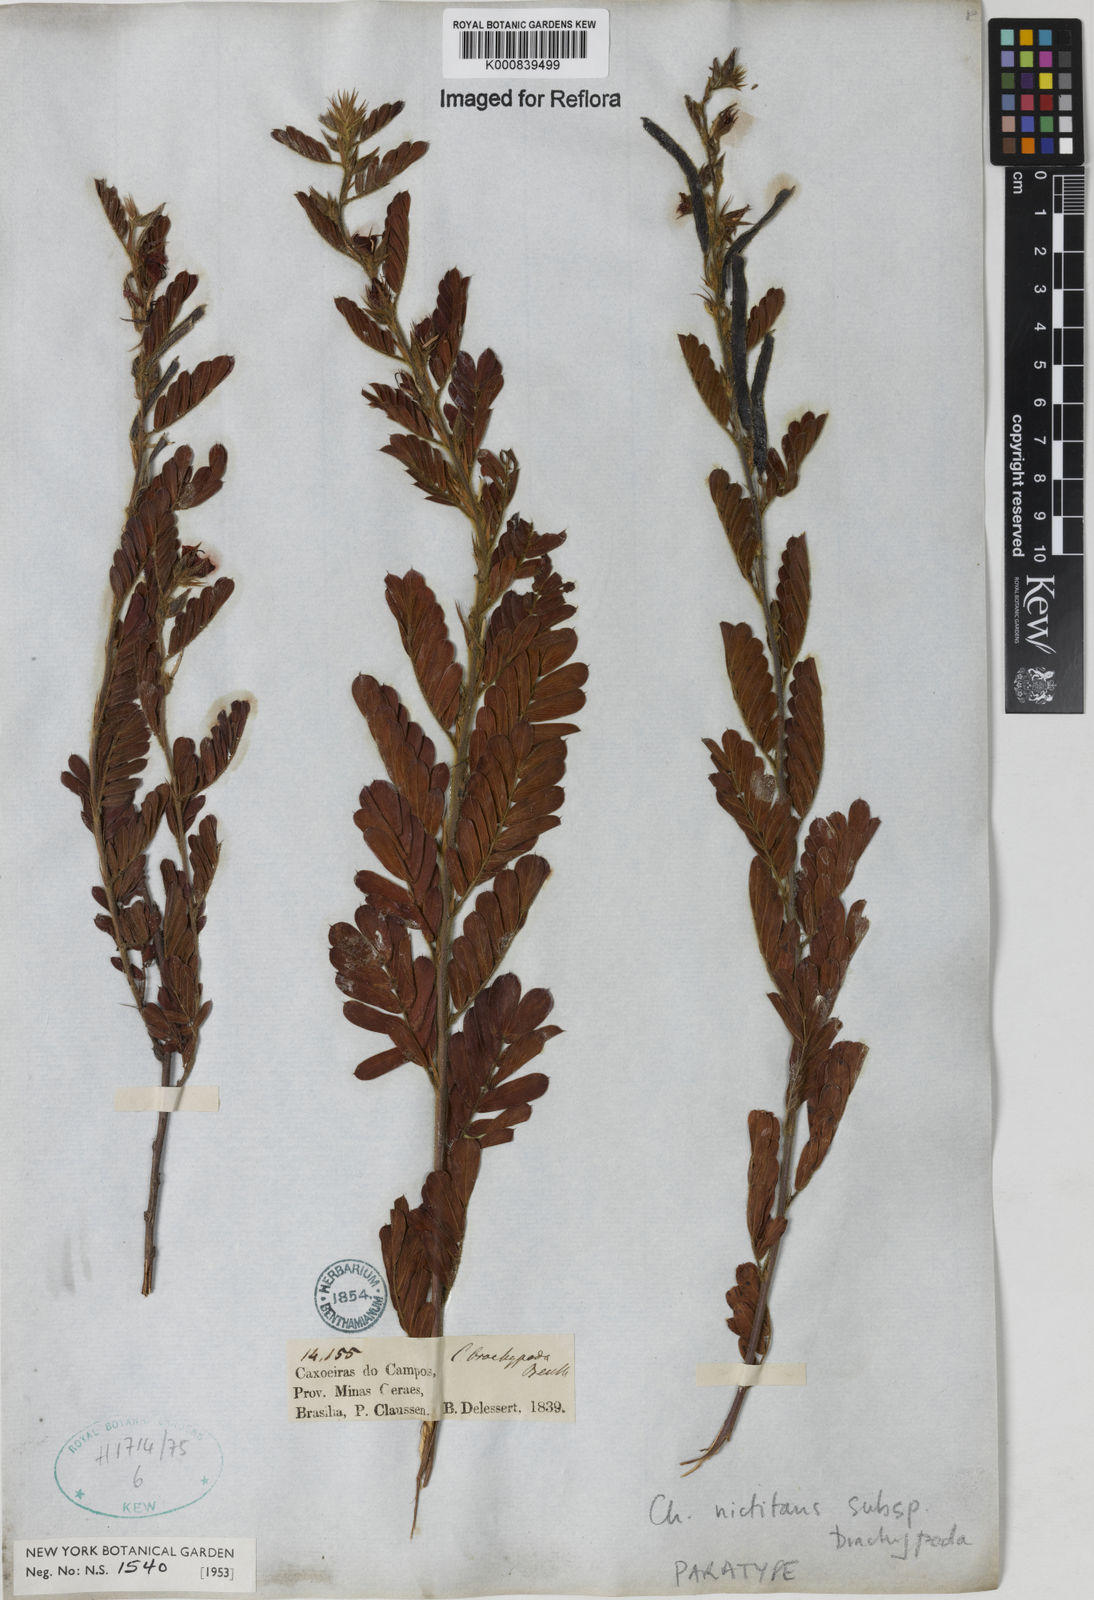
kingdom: Plantae
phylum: Tracheophyta
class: Magnoliopsida
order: Fabales
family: Fabaceae
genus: Chamaecrista
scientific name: Chamaecrista nictitans
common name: Sensitive cassia
